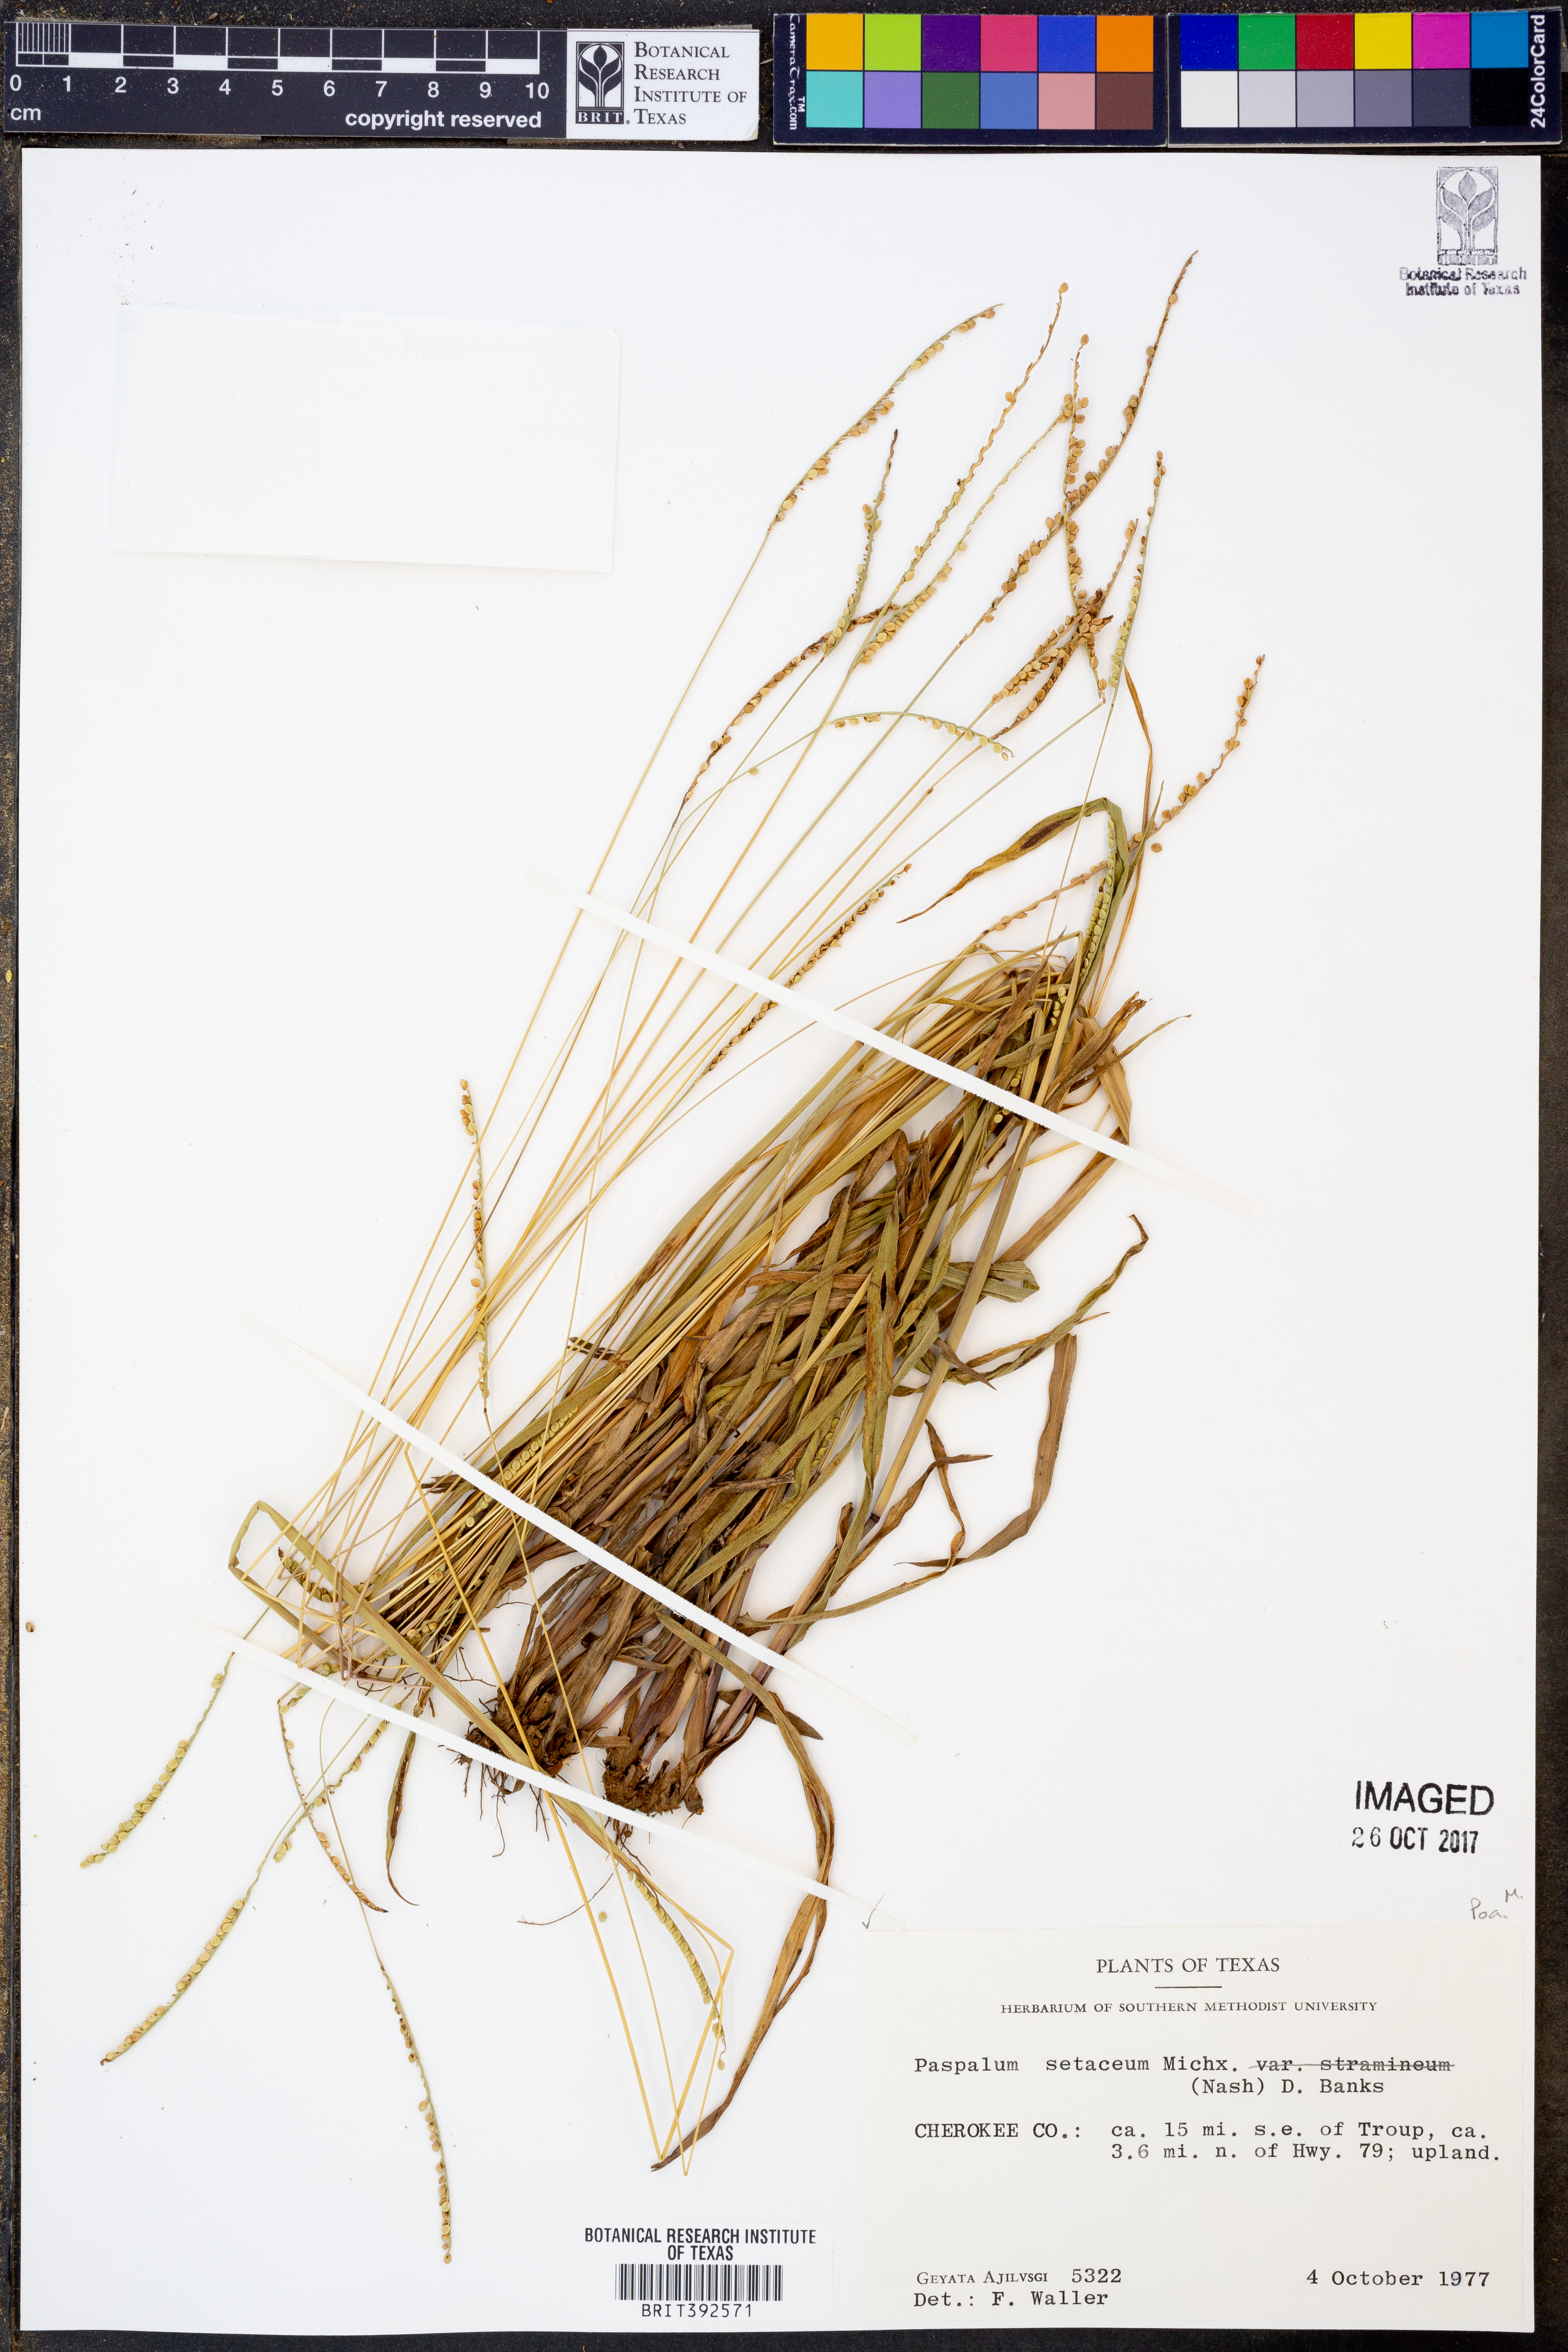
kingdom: Plantae
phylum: Tracheophyta
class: Liliopsida
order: Poales
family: Poaceae
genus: Paspalum
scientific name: Paspalum setaceum
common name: Slender paspalum
